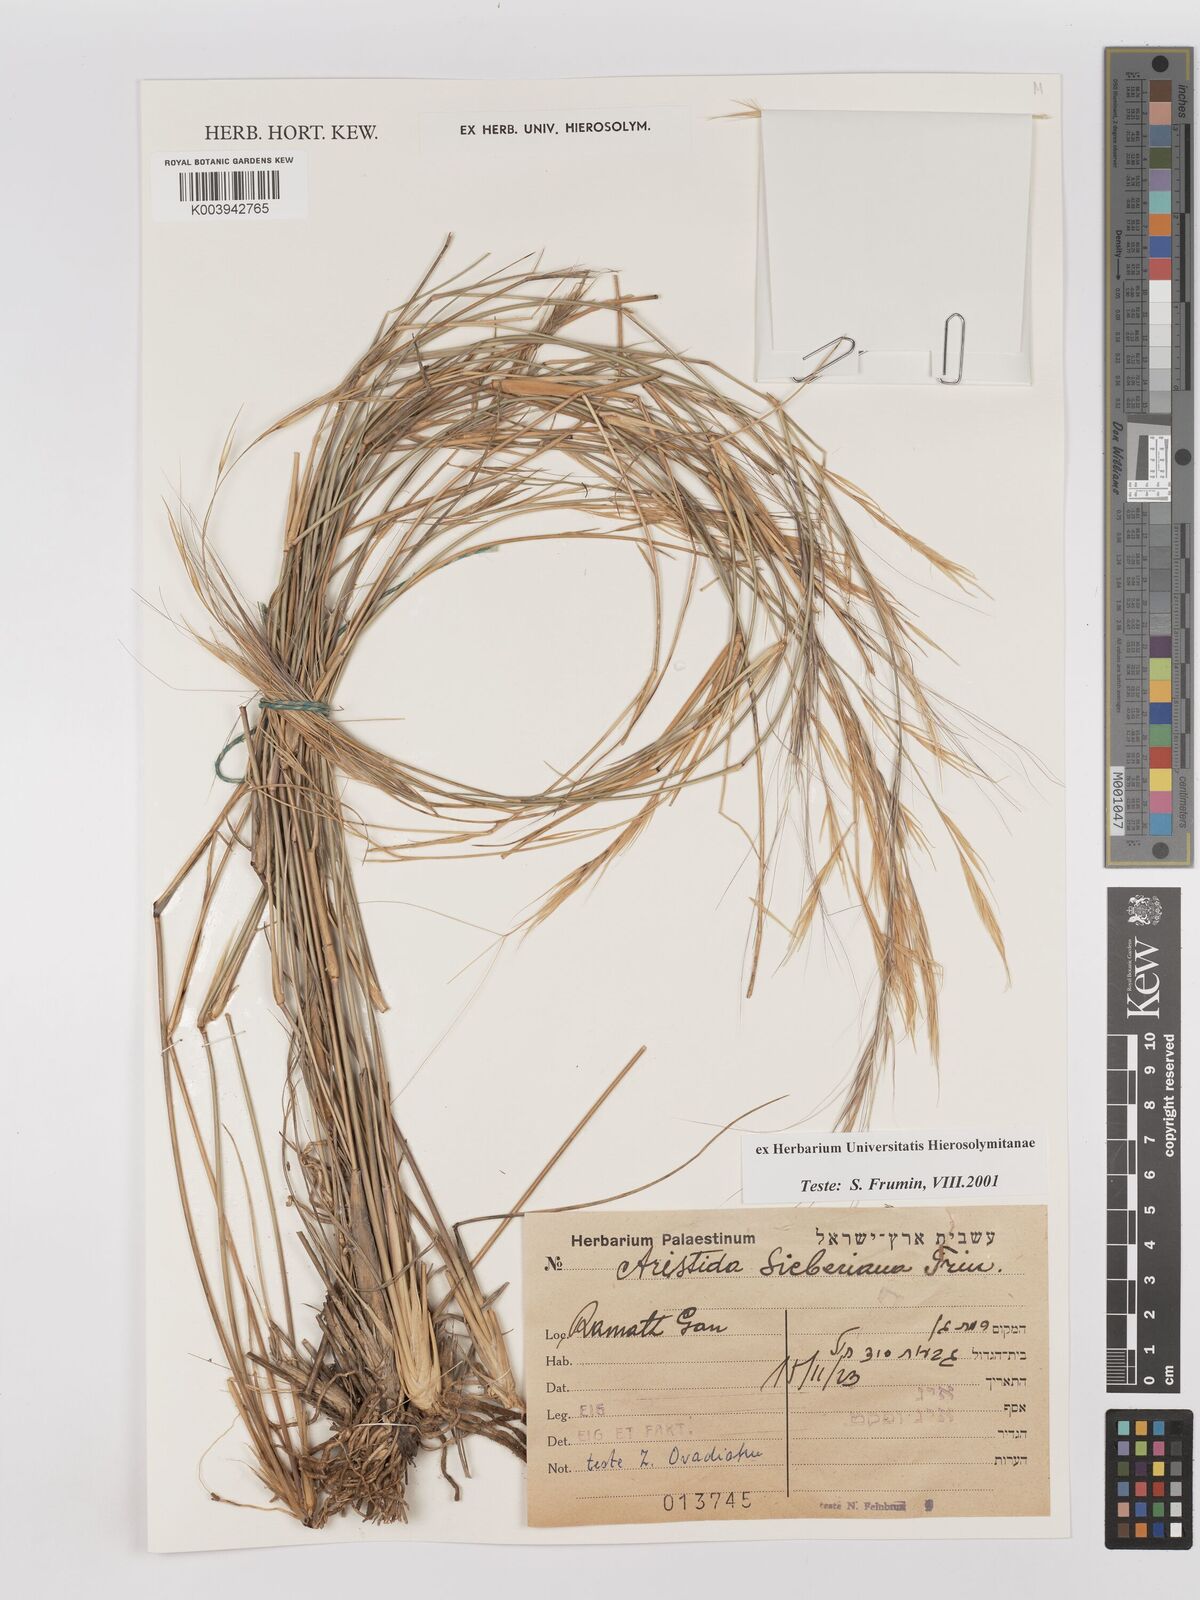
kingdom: Plantae
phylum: Tracheophyta
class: Liliopsida
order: Poales
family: Poaceae
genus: Aristida
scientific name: Aristida sieberiana
